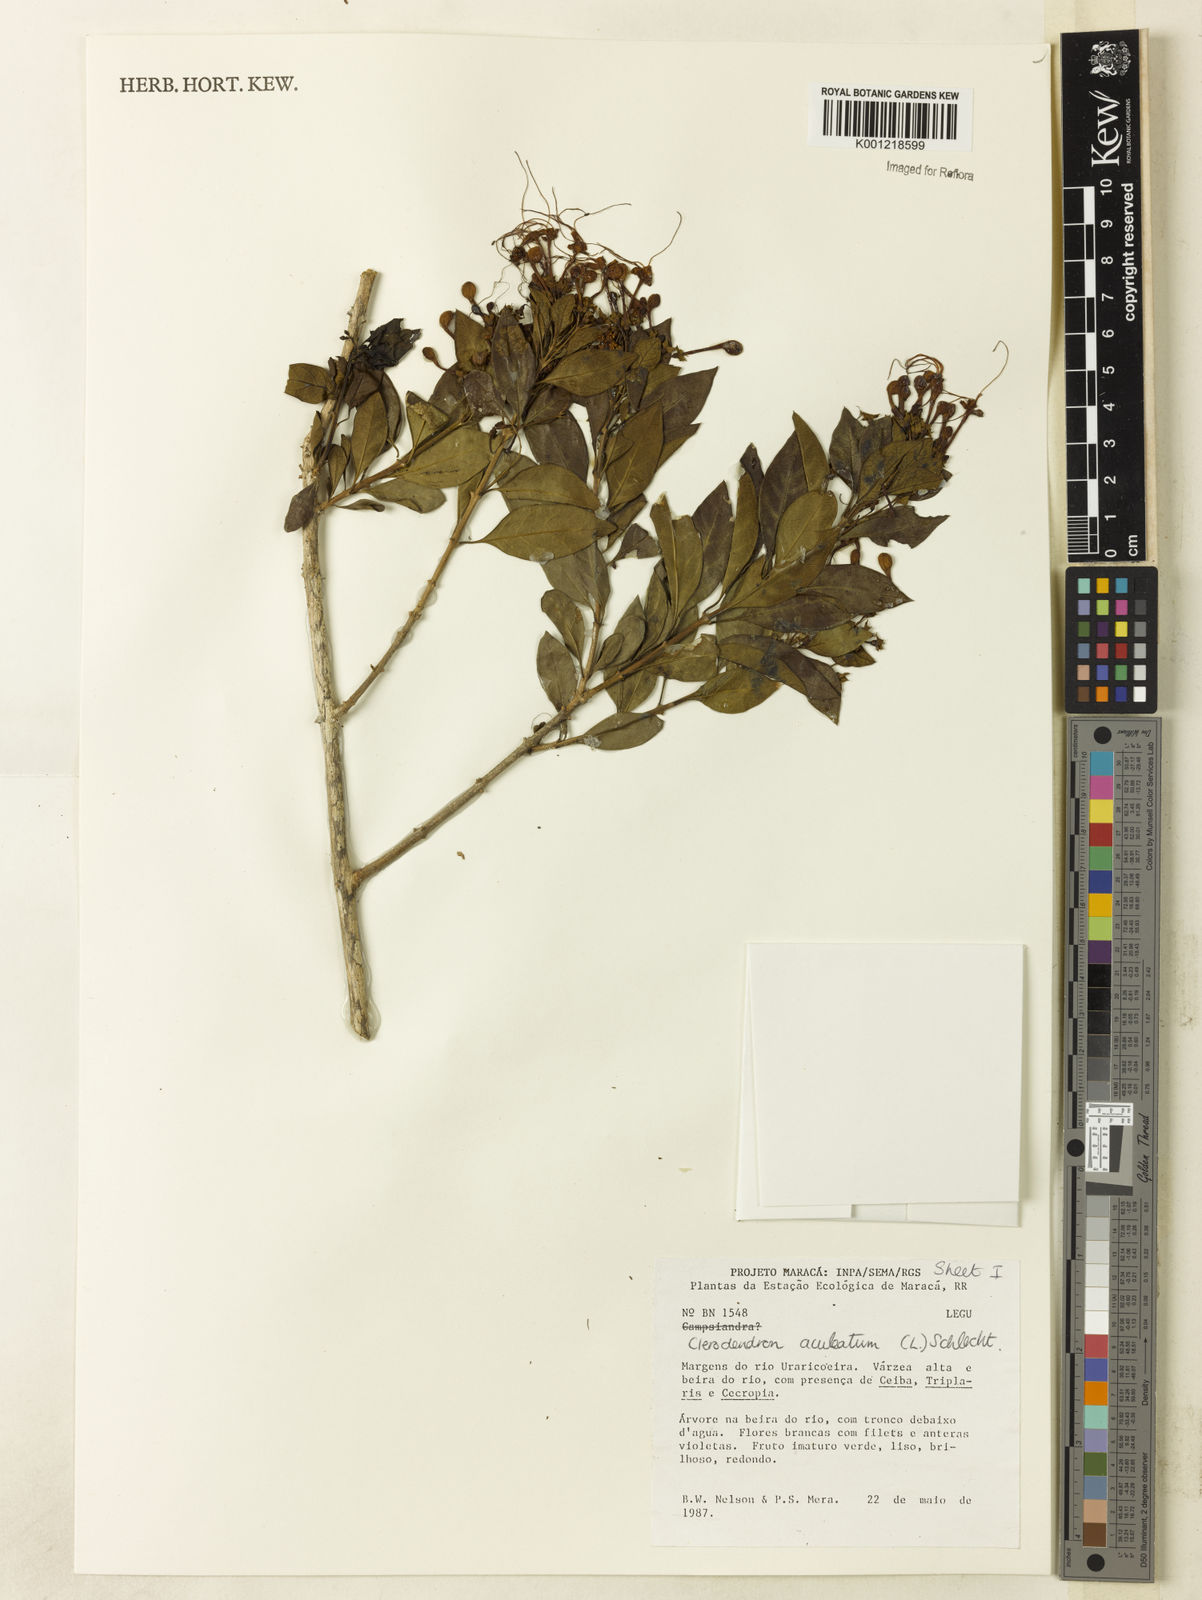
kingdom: Plantae
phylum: Tracheophyta
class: Magnoliopsida
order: Lamiales
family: Lamiaceae
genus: Volkameria
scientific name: Volkameria aculeata
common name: Prickly myrtle
